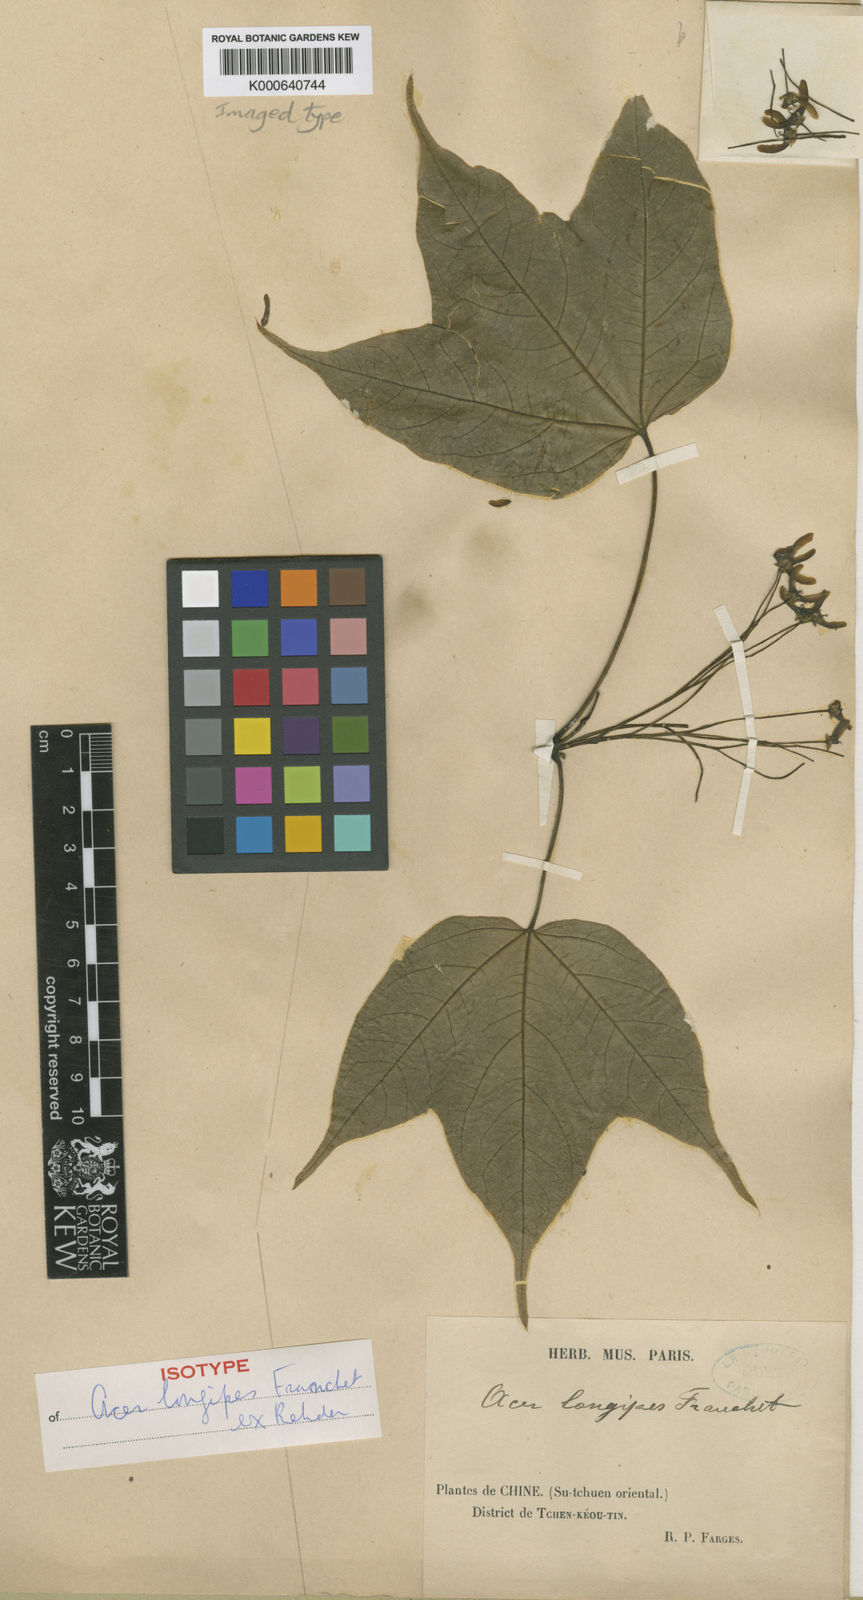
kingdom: Plantae
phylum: Tracheophyta
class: Magnoliopsida
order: Sapindales
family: Sapindaceae
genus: Acer
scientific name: Acer longipes
